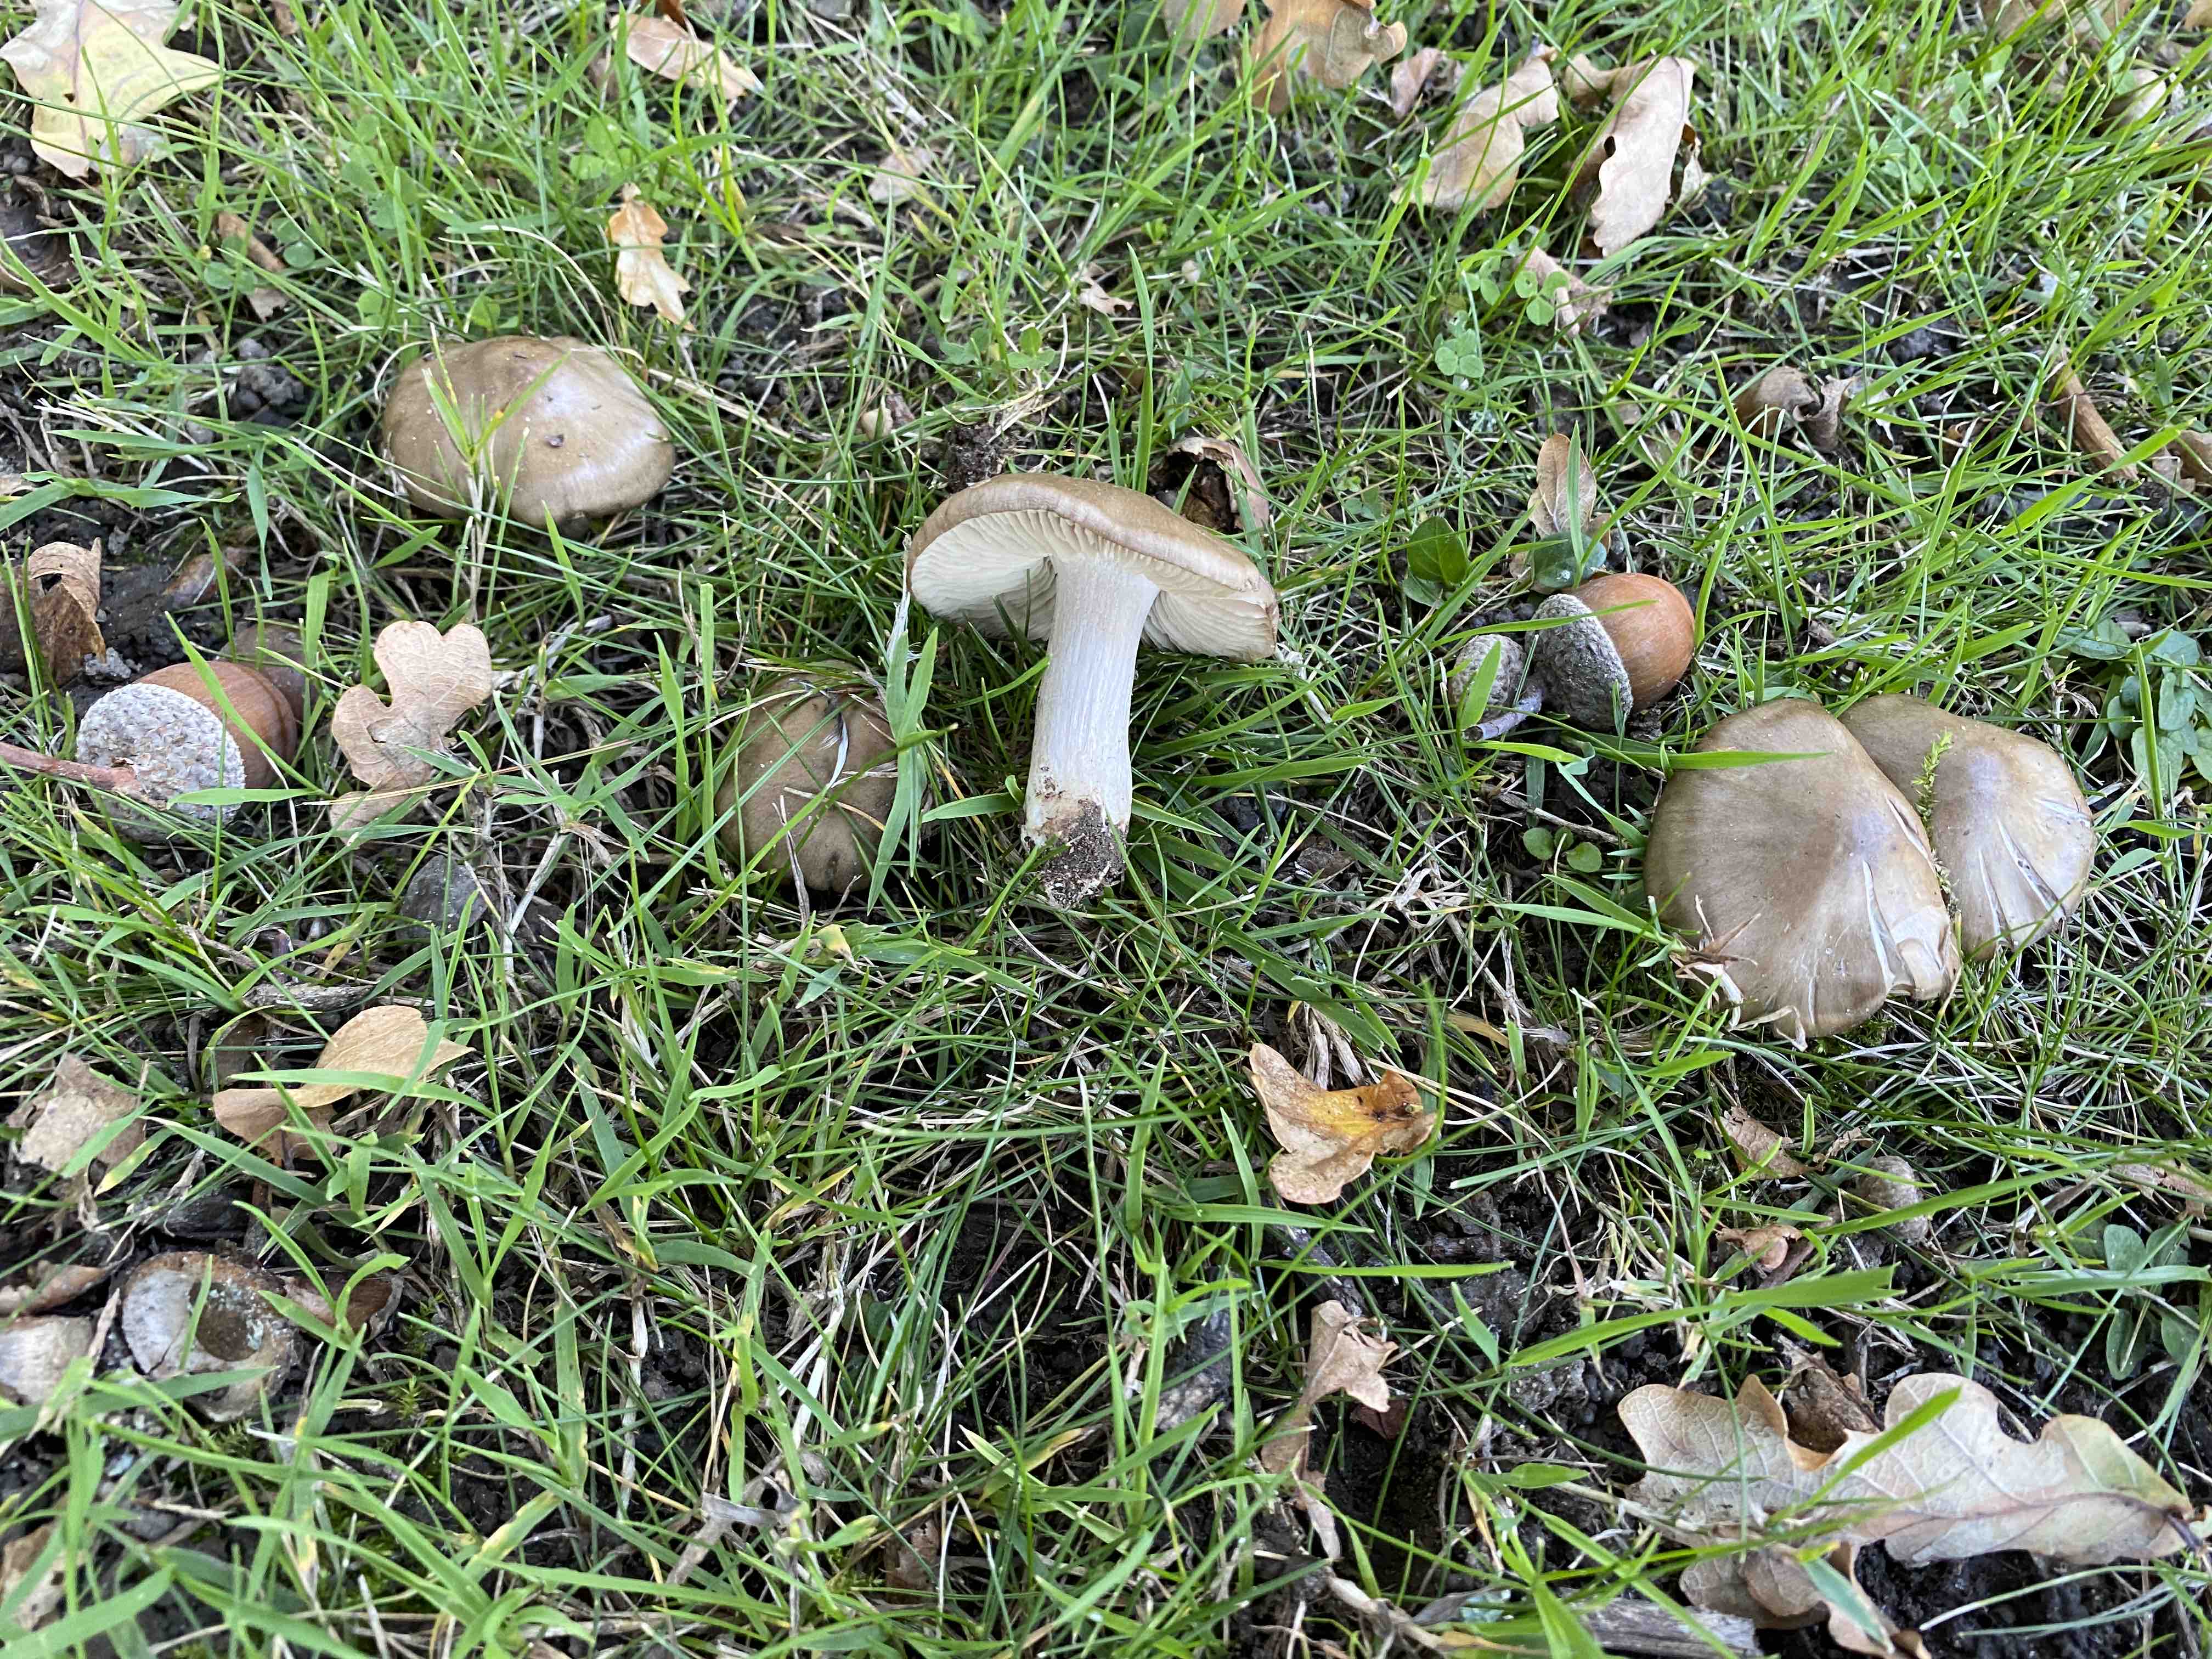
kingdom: Fungi
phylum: Basidiomycota
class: Agaricomycetes
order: Agaricales
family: Entolomataceae
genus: Entoloma
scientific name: Entoloma
